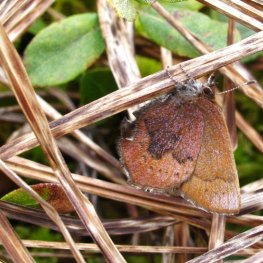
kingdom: Animalia
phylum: Arthropoda
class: Insecta
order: Lepidoptera
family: Lycaenidae
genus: Incisalia
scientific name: Incisalia irioides
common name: Brown Elfin
